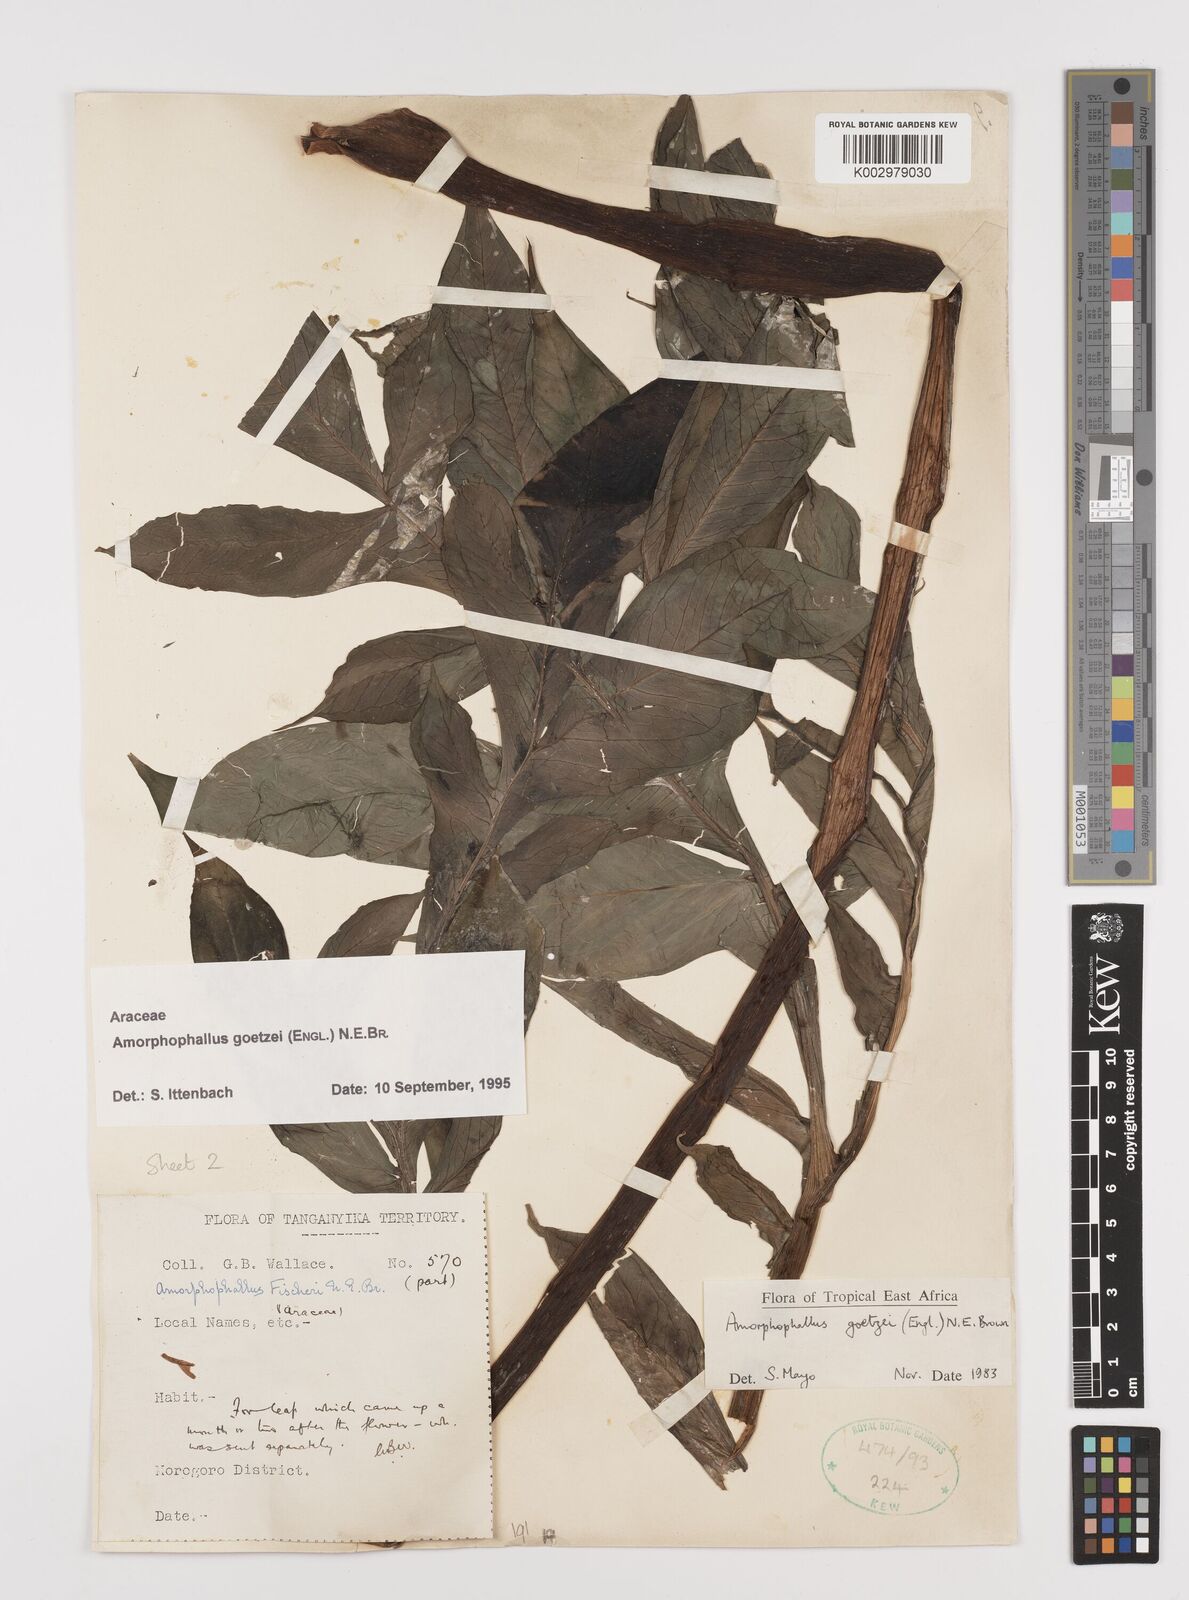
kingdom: Plantae
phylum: Tracheophyta
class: Liliopsida
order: Alismatales
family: Araceae
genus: Amorphophallus
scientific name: Amorphophallus goetzei
